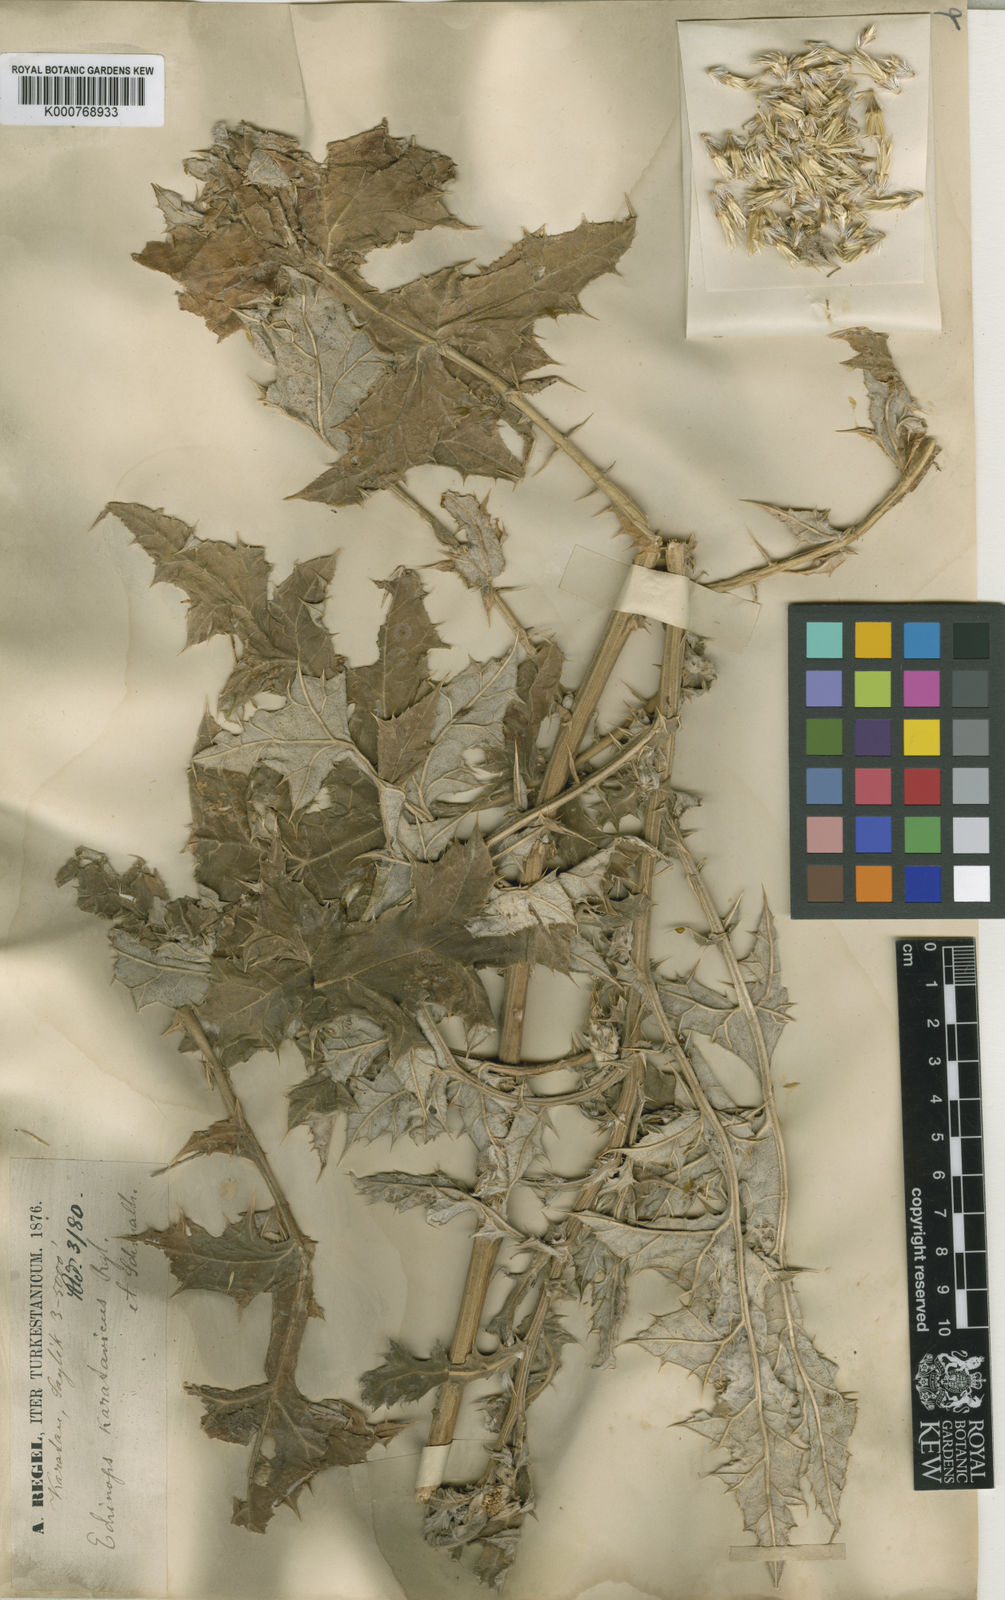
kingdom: Plantae
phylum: Tracheophyta
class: Magnoliopsida
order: Asterales
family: Asteraceae
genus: Echinops
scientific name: Echinops karatavicus
